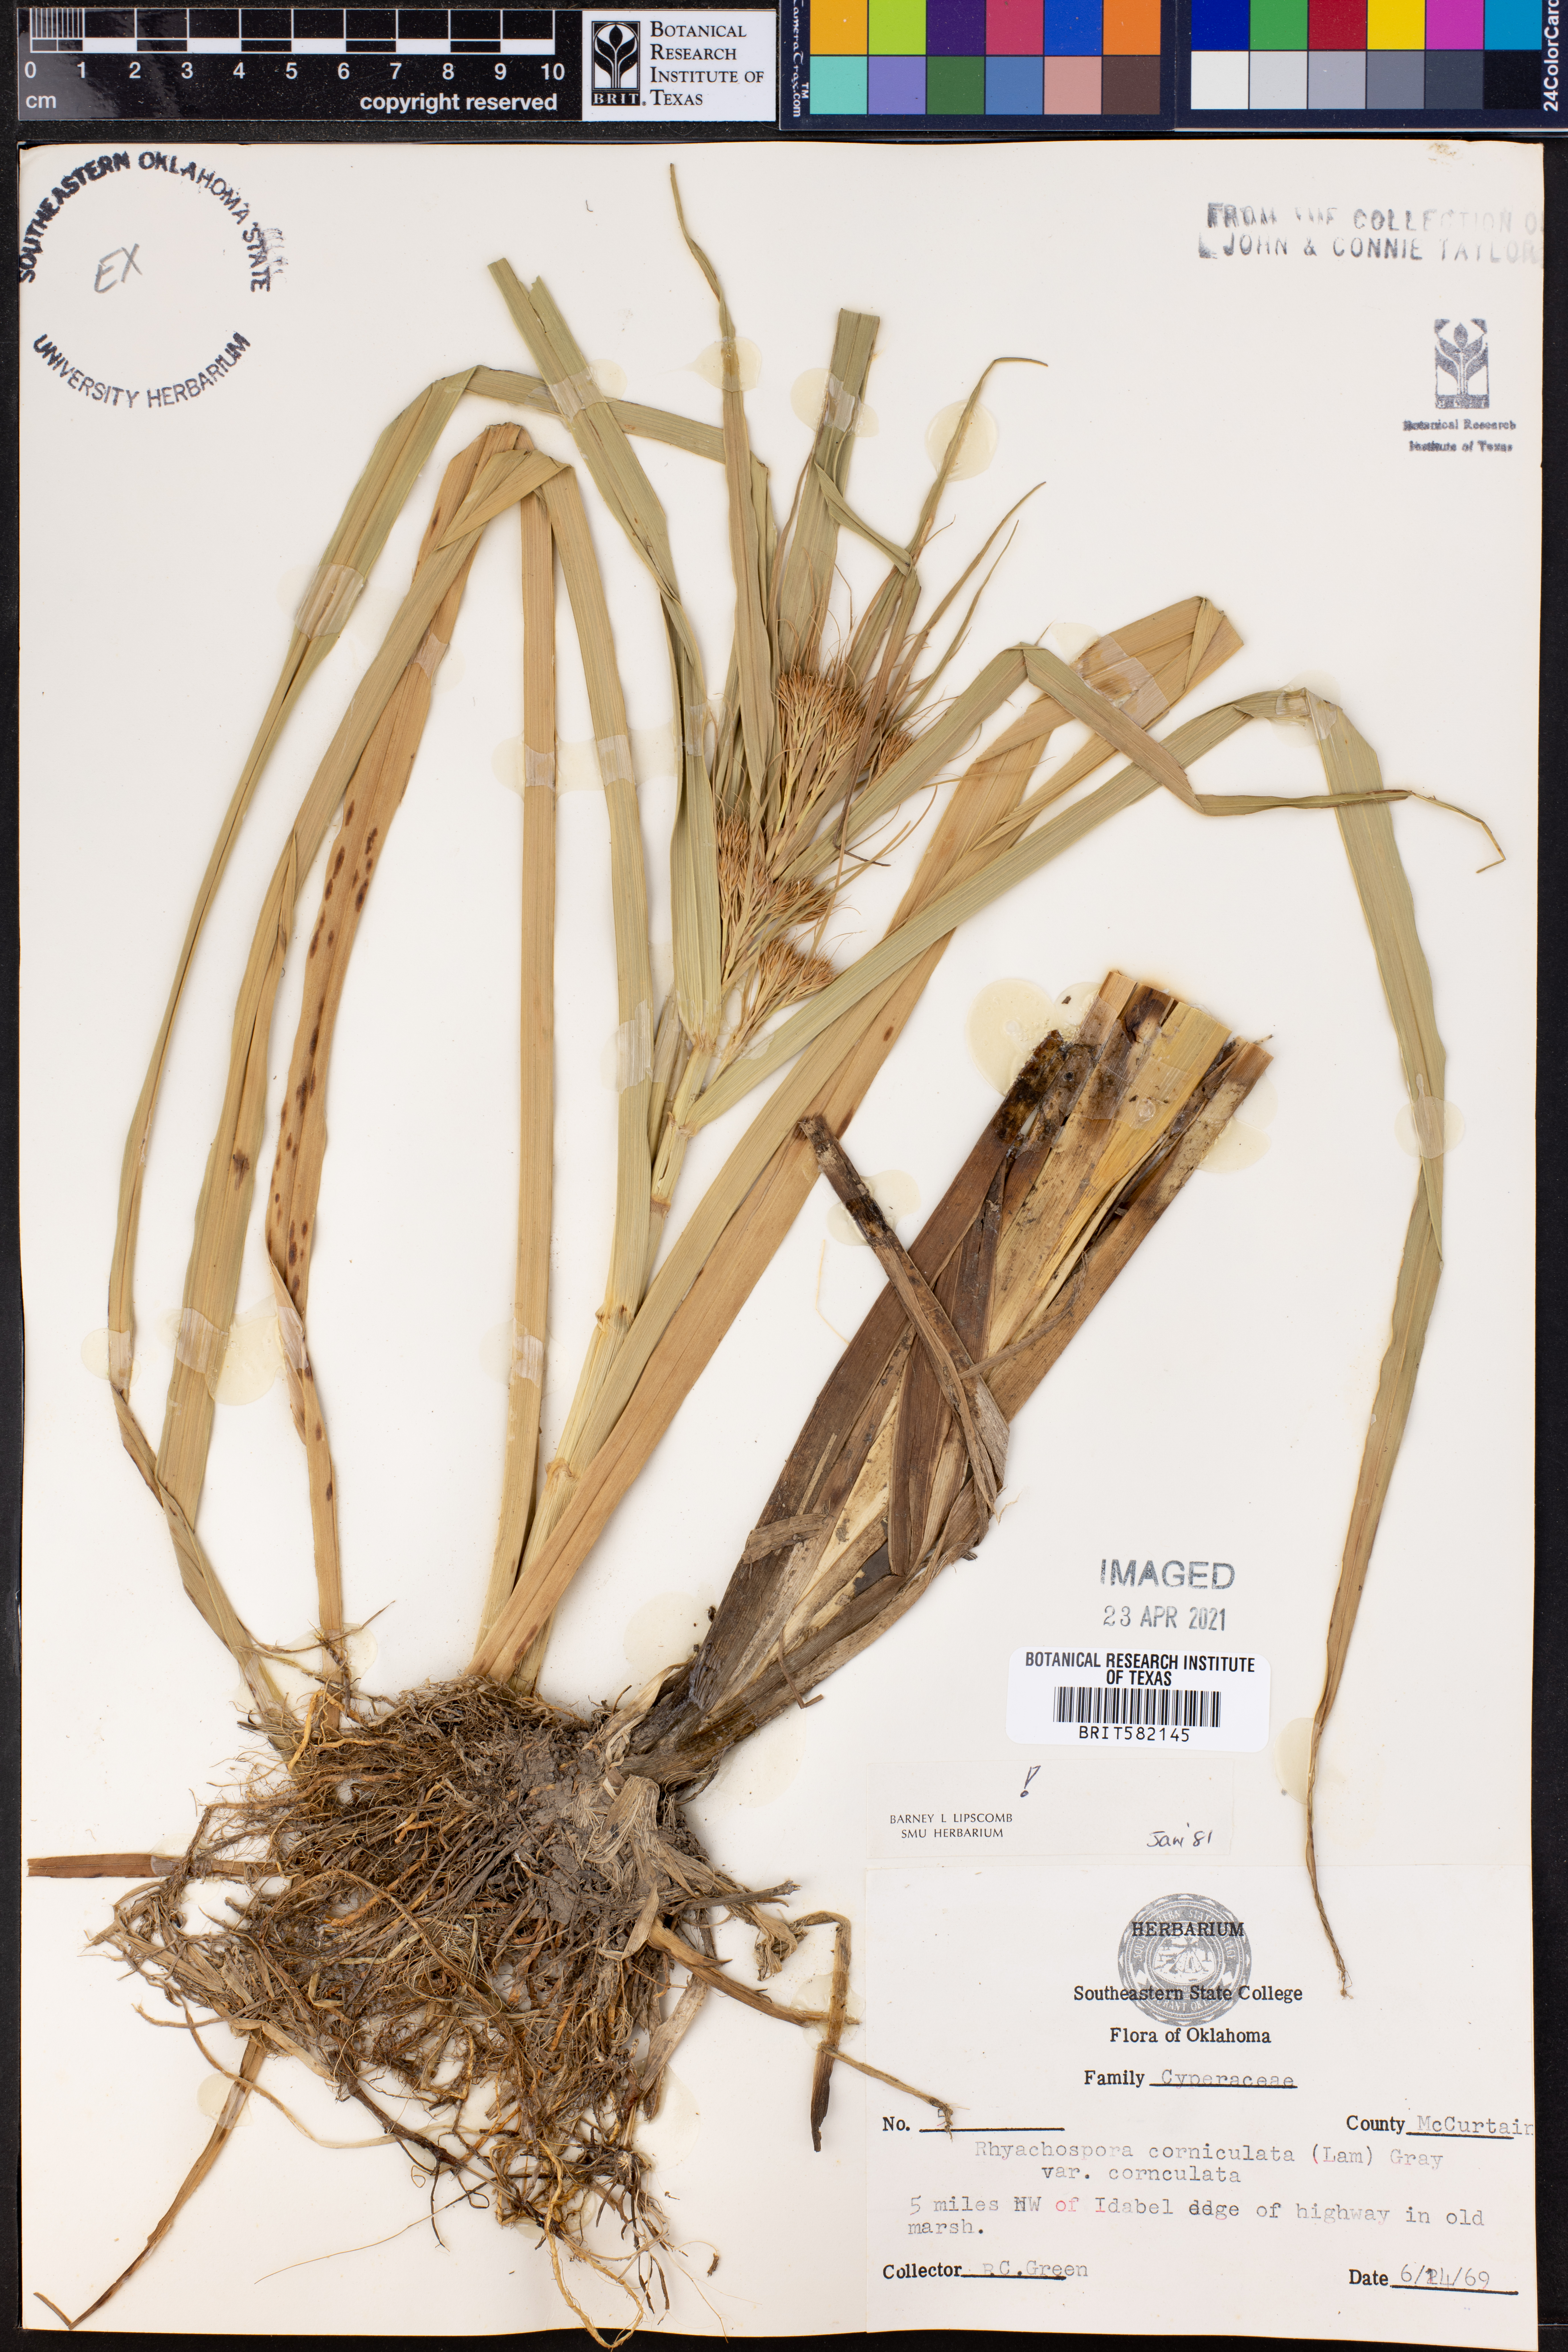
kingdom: Plantae
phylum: Tracheophyta
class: Liliopsida
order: Poales
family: Cyperaceae
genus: Rhynchospora
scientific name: Rhynchospora corniculata
